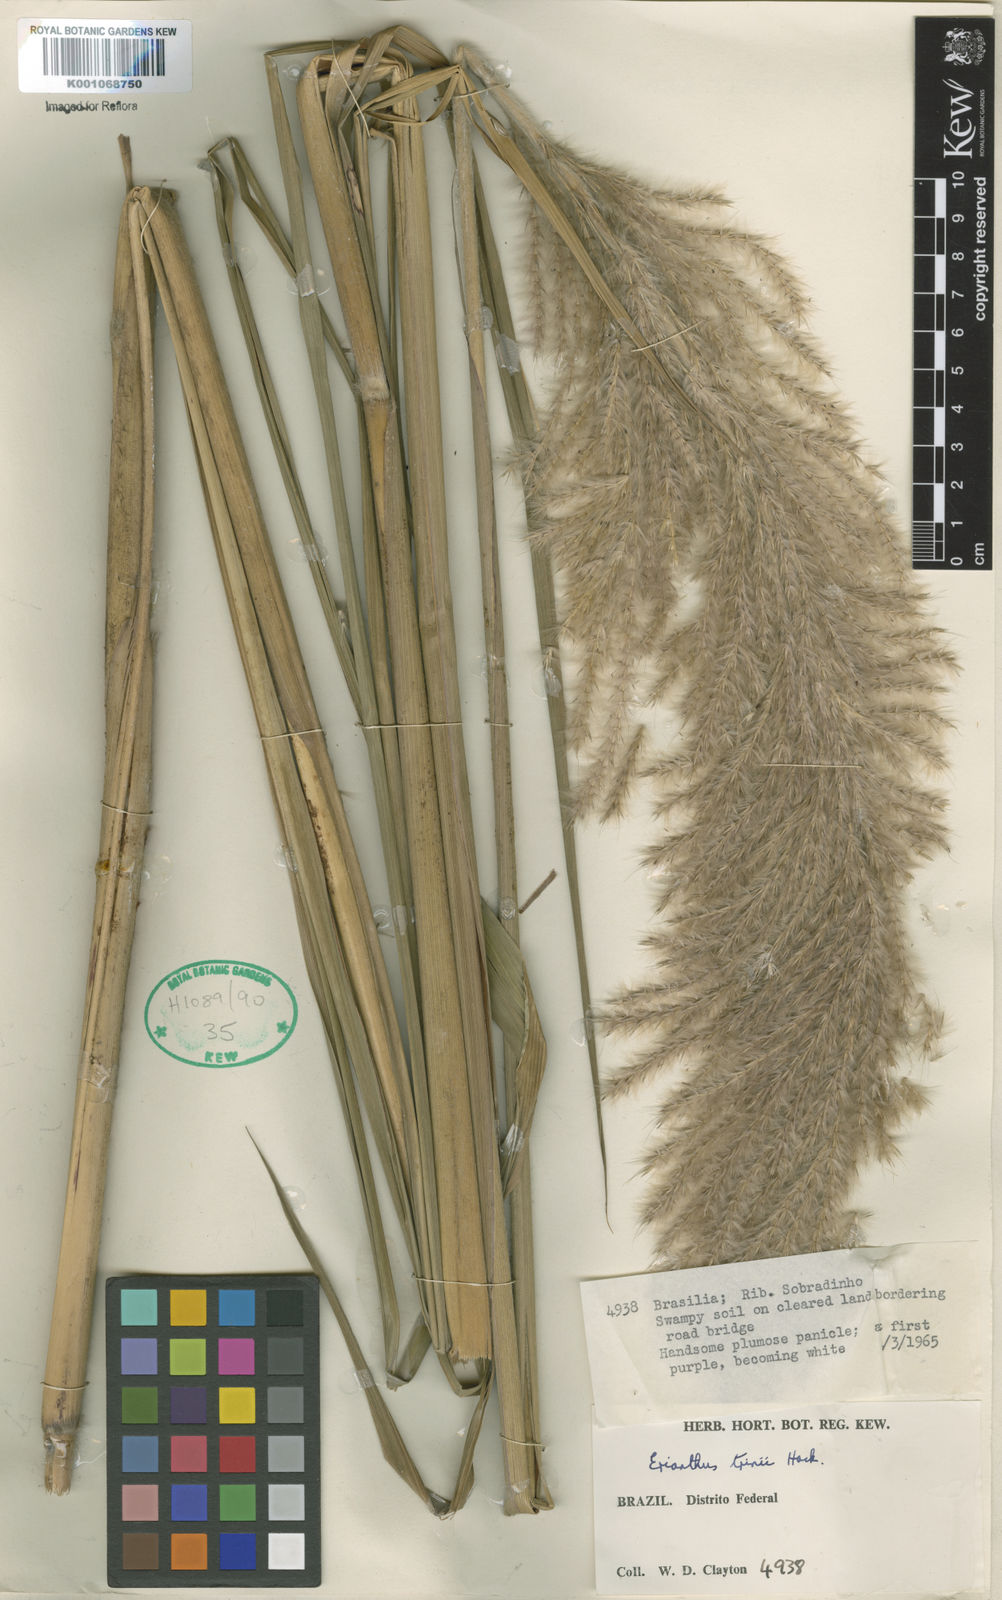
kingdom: Plantae
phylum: Tracheophyta
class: Liliopsida
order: Poales
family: Poaceae
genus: Erianthus
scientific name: Erianthus trinii
